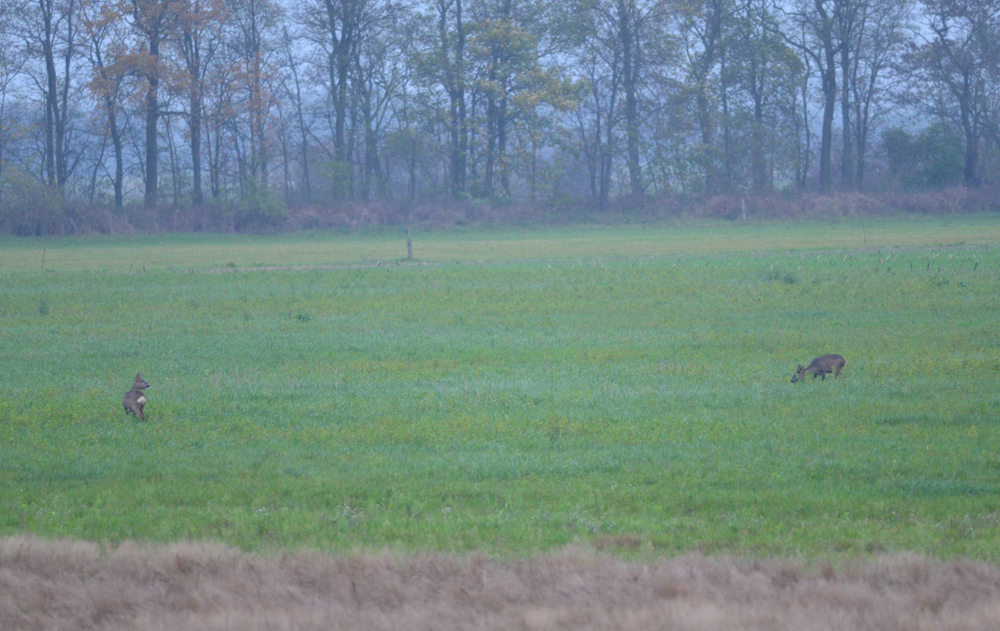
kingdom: Animalia
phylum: Chordata
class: Mammalia
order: Artiodactyla
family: Cervidae
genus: Capreolus
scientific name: Capreolus capreolus
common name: Western roe deer
